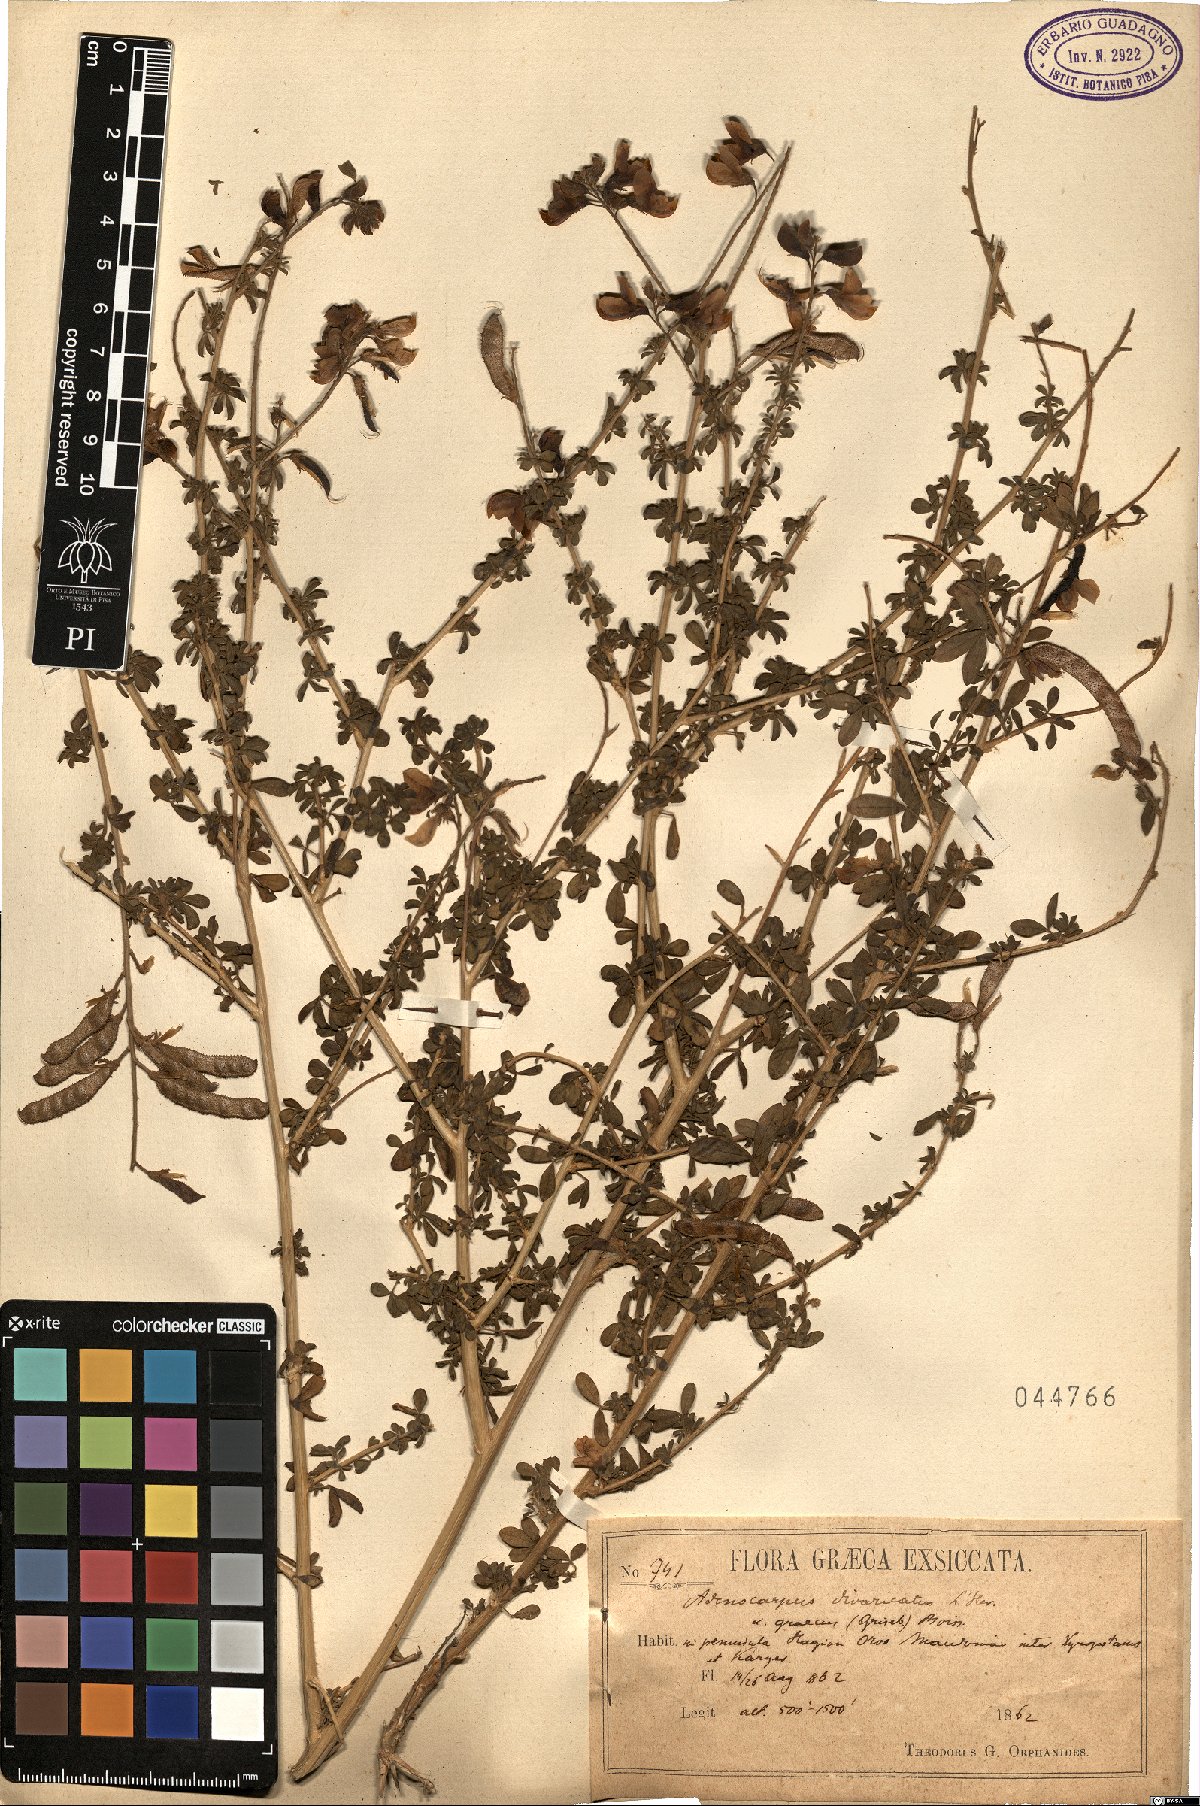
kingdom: Plantae
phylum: Tracheophyta
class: Magnoliopsida
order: Fabales
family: Fabaceae
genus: Adenocarpus
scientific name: Adenocarpus complicatus
